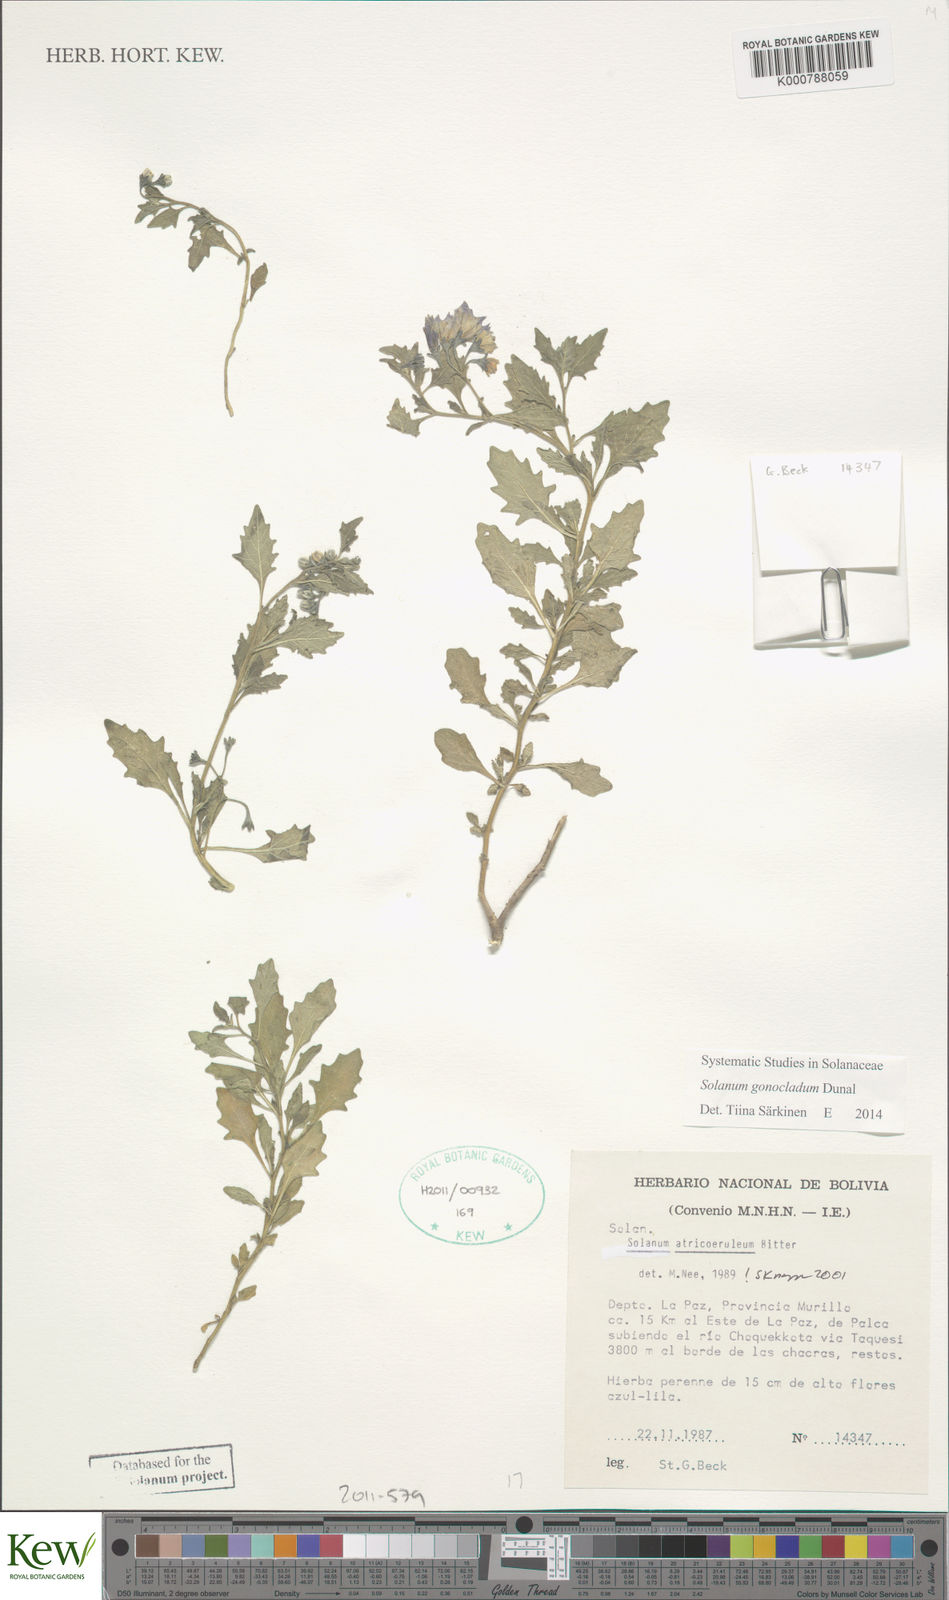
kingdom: Plantae
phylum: Tracheophyta
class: Magnoliopsida
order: Solanales
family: Solanaceae
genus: Solanum
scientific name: Solanum gonocladum
